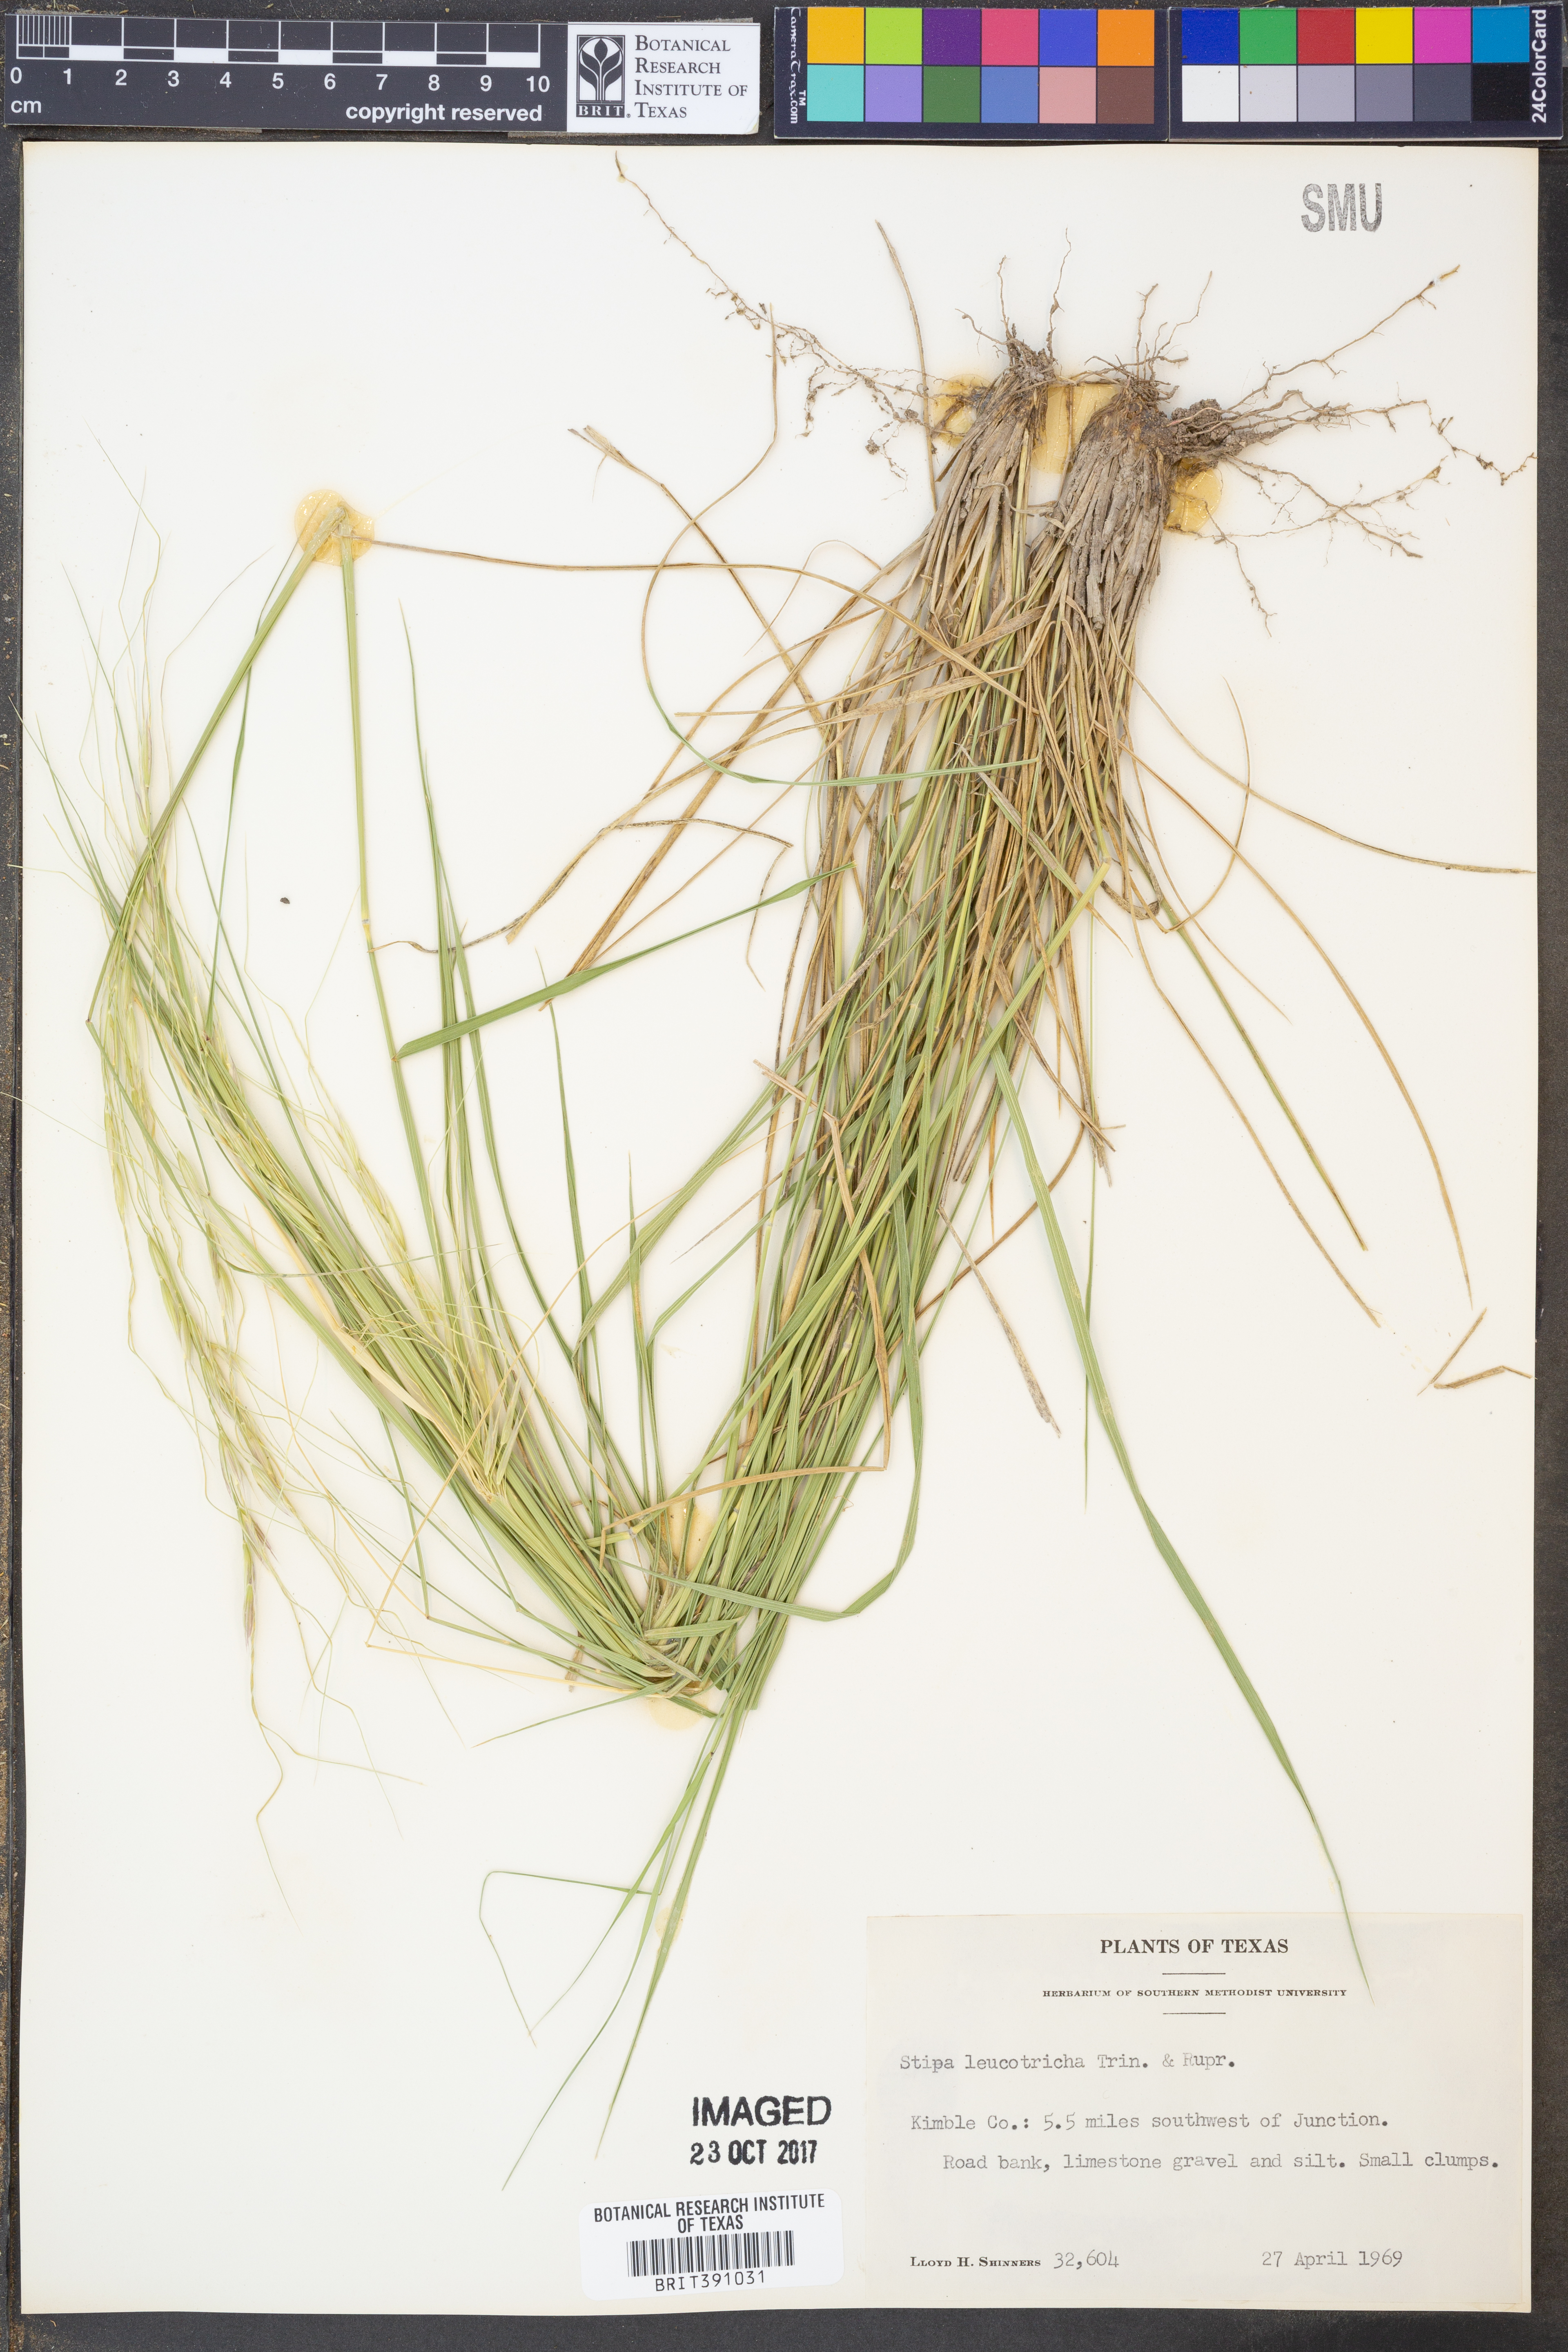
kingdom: Plantae
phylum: Tracheophyta
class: Liliopsida
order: Poales
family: Poaceae
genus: Nassella
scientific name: Nassella leucotricha
